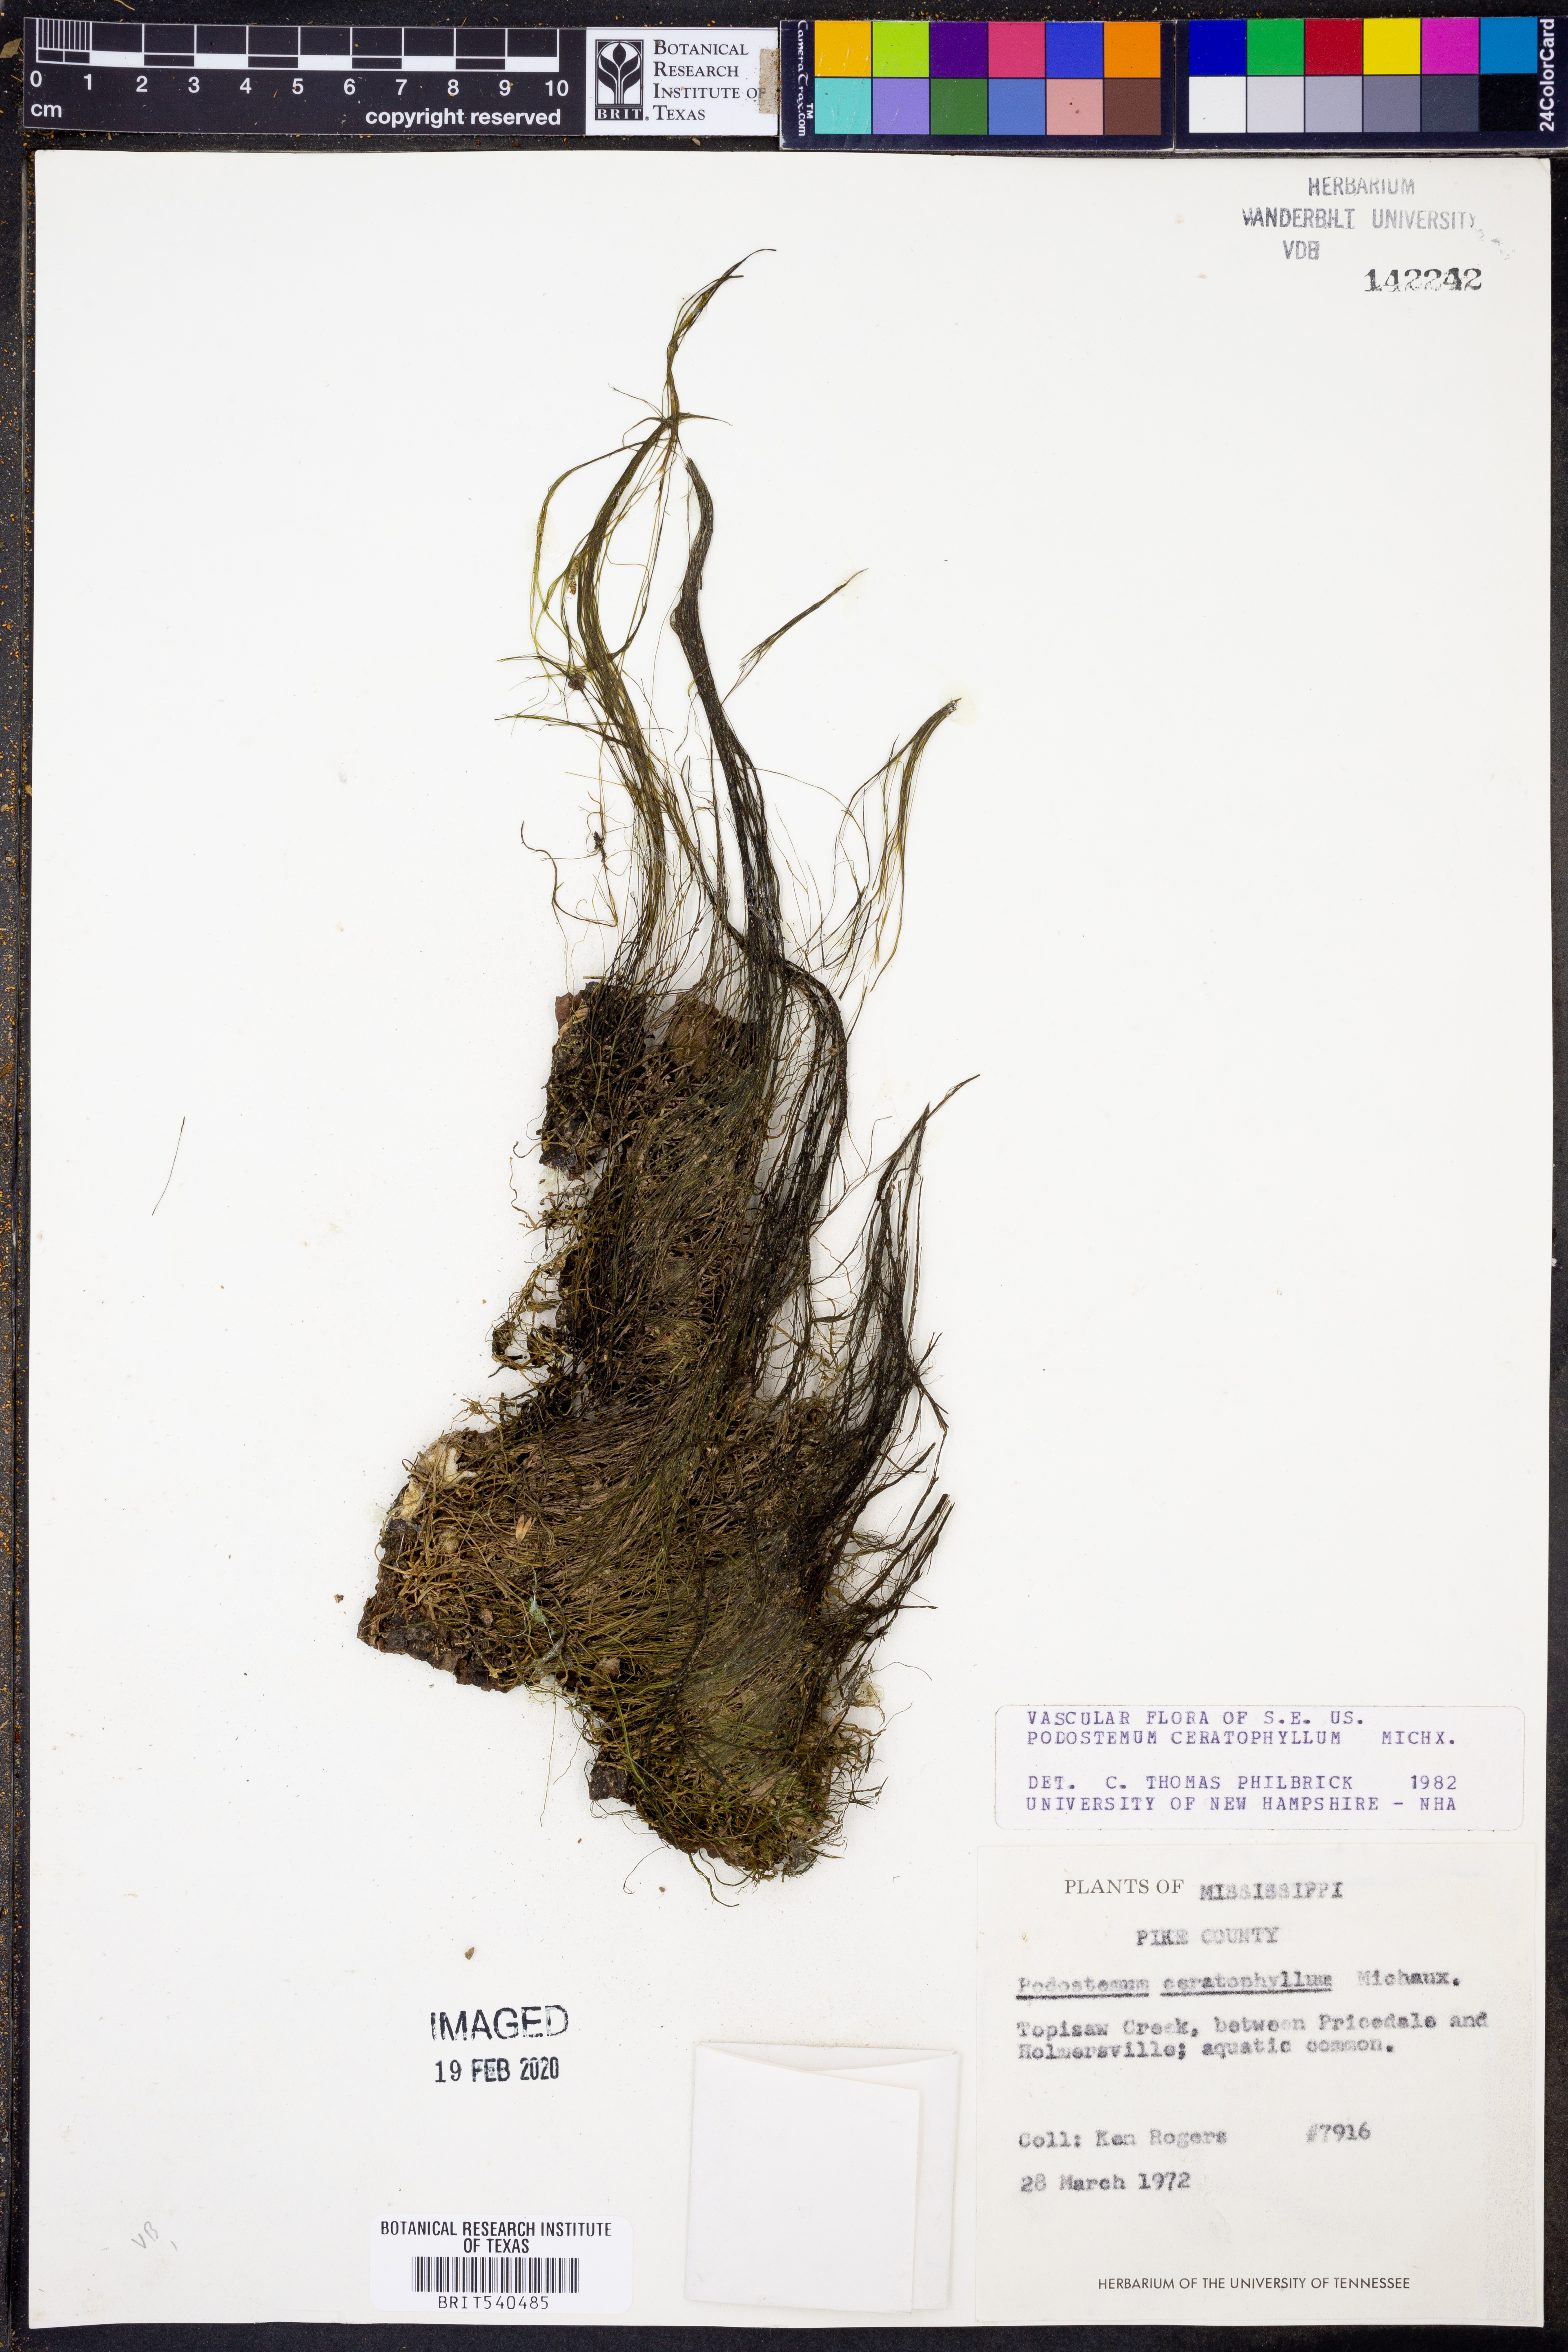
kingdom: Plantae
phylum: Tracheophyta
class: Magnoliopsida
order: Malpighiales
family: Podostemaceae
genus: Podostemum
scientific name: Podostemum ceratophyllum
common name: Horn-leaved riverweed
